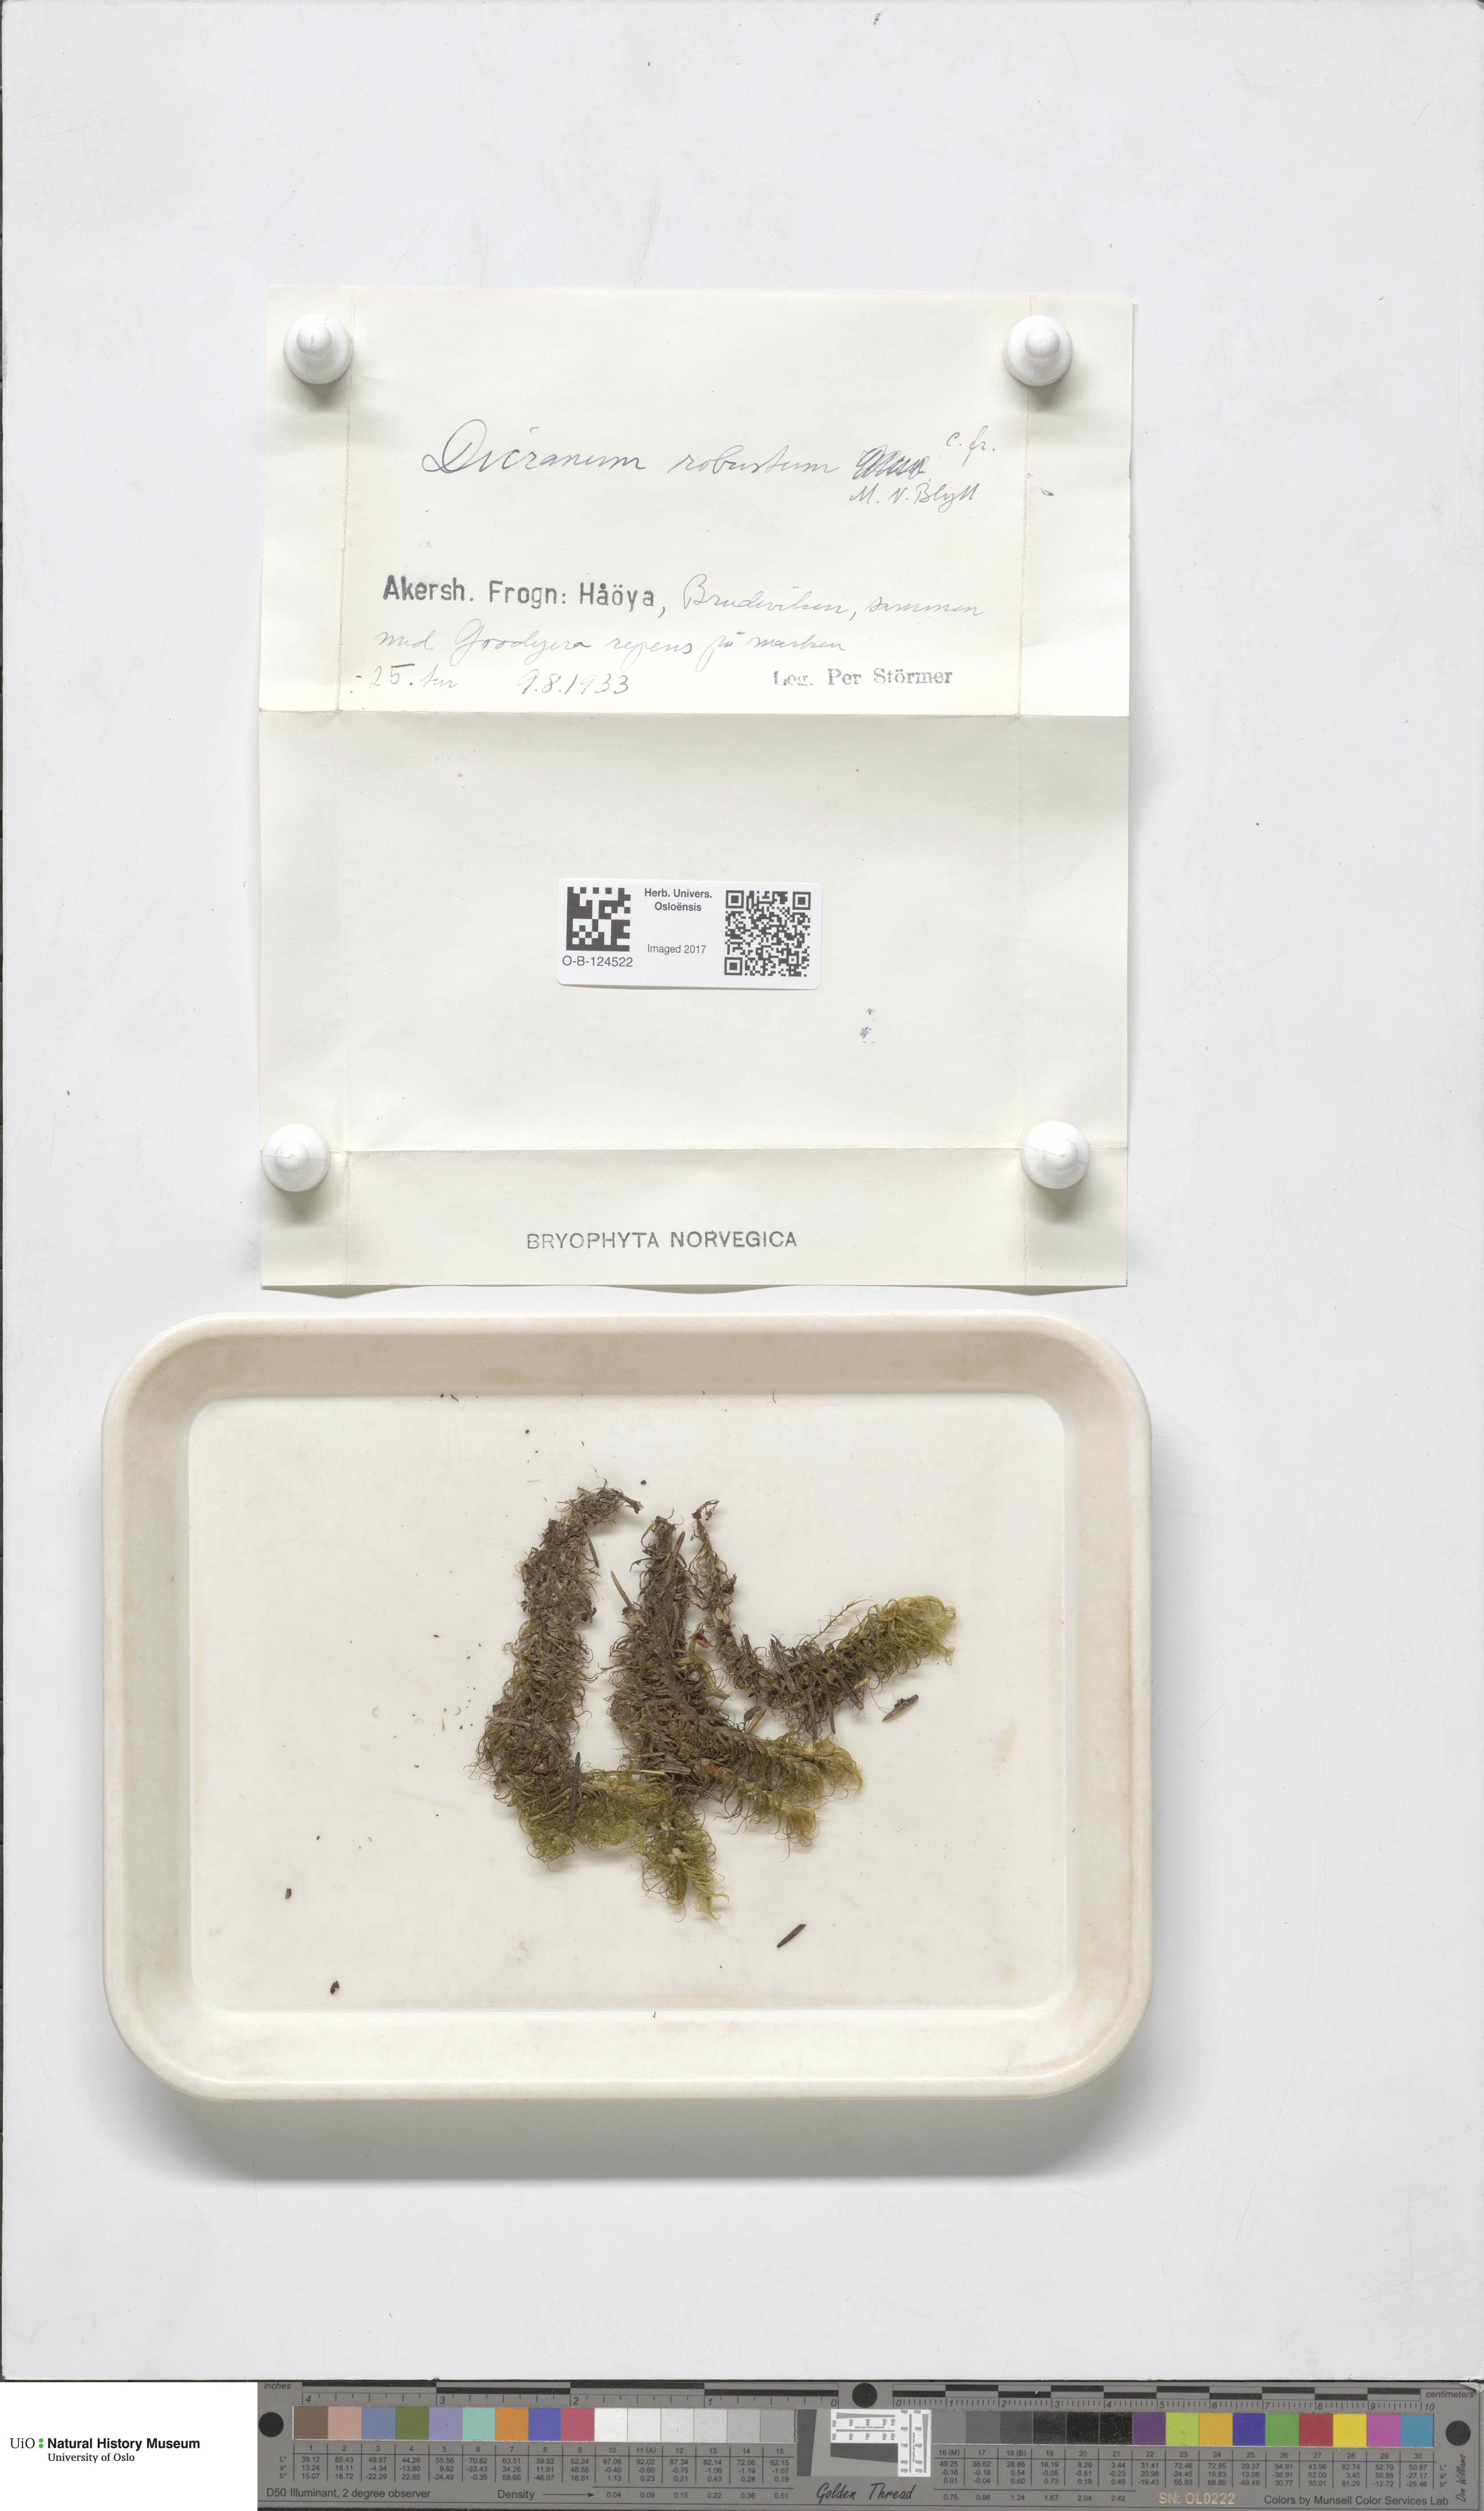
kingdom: Plantae
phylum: Bryophyta
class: Bryopsida
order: Dicranales
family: Dicranaceae
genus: Dicranum
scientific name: Dicranum drummondii
